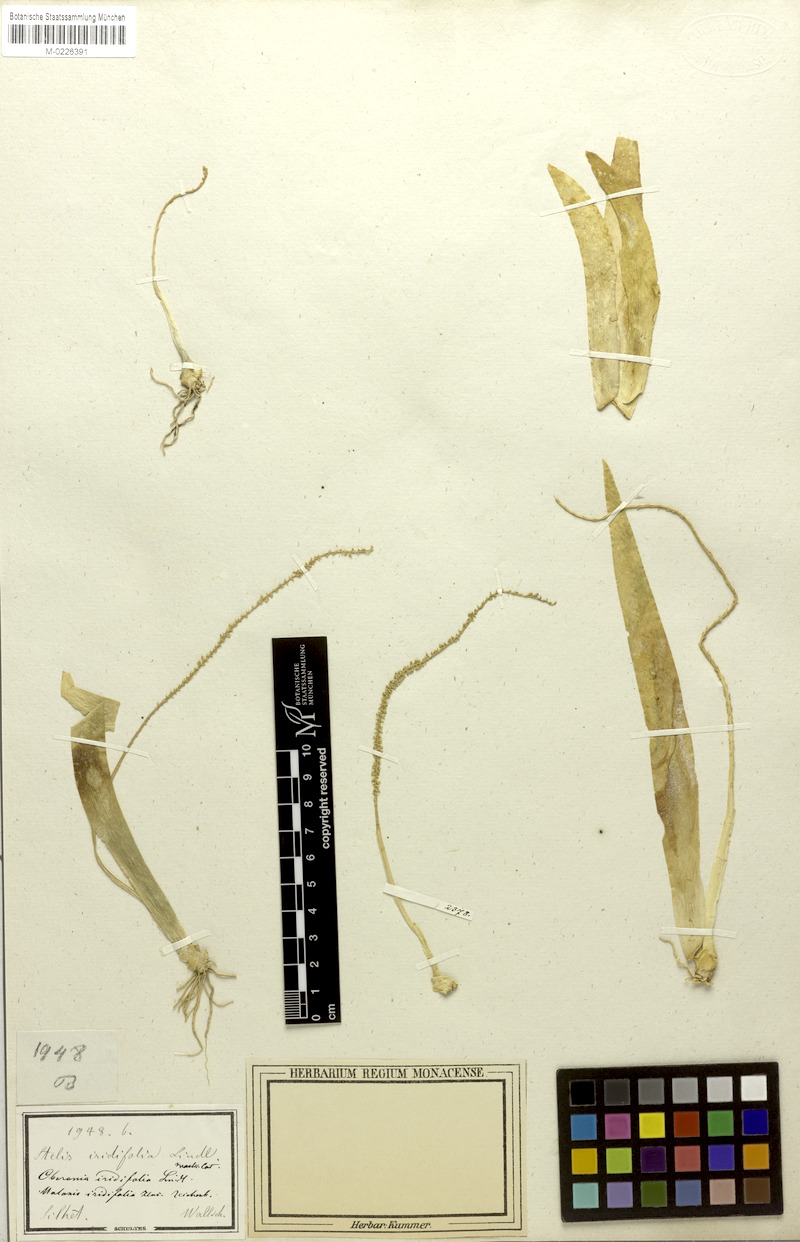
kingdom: Plantae
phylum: Tracheophyta
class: Liliopsida
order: Asparagales
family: Orchidaceae
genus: Oberonia
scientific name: Oberonia ensiformis
